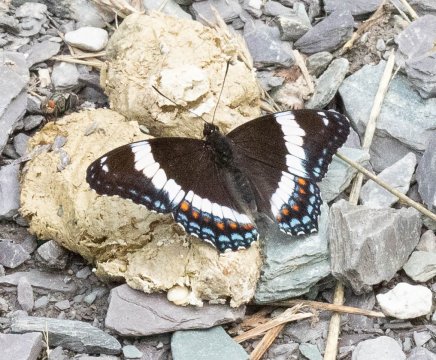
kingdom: Animalia
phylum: Arthropoda
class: Insecta
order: Lepidoptera
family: Nymphalidae
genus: Limenitis
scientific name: Limenitis arthemis
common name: Red-spotted Admiral
